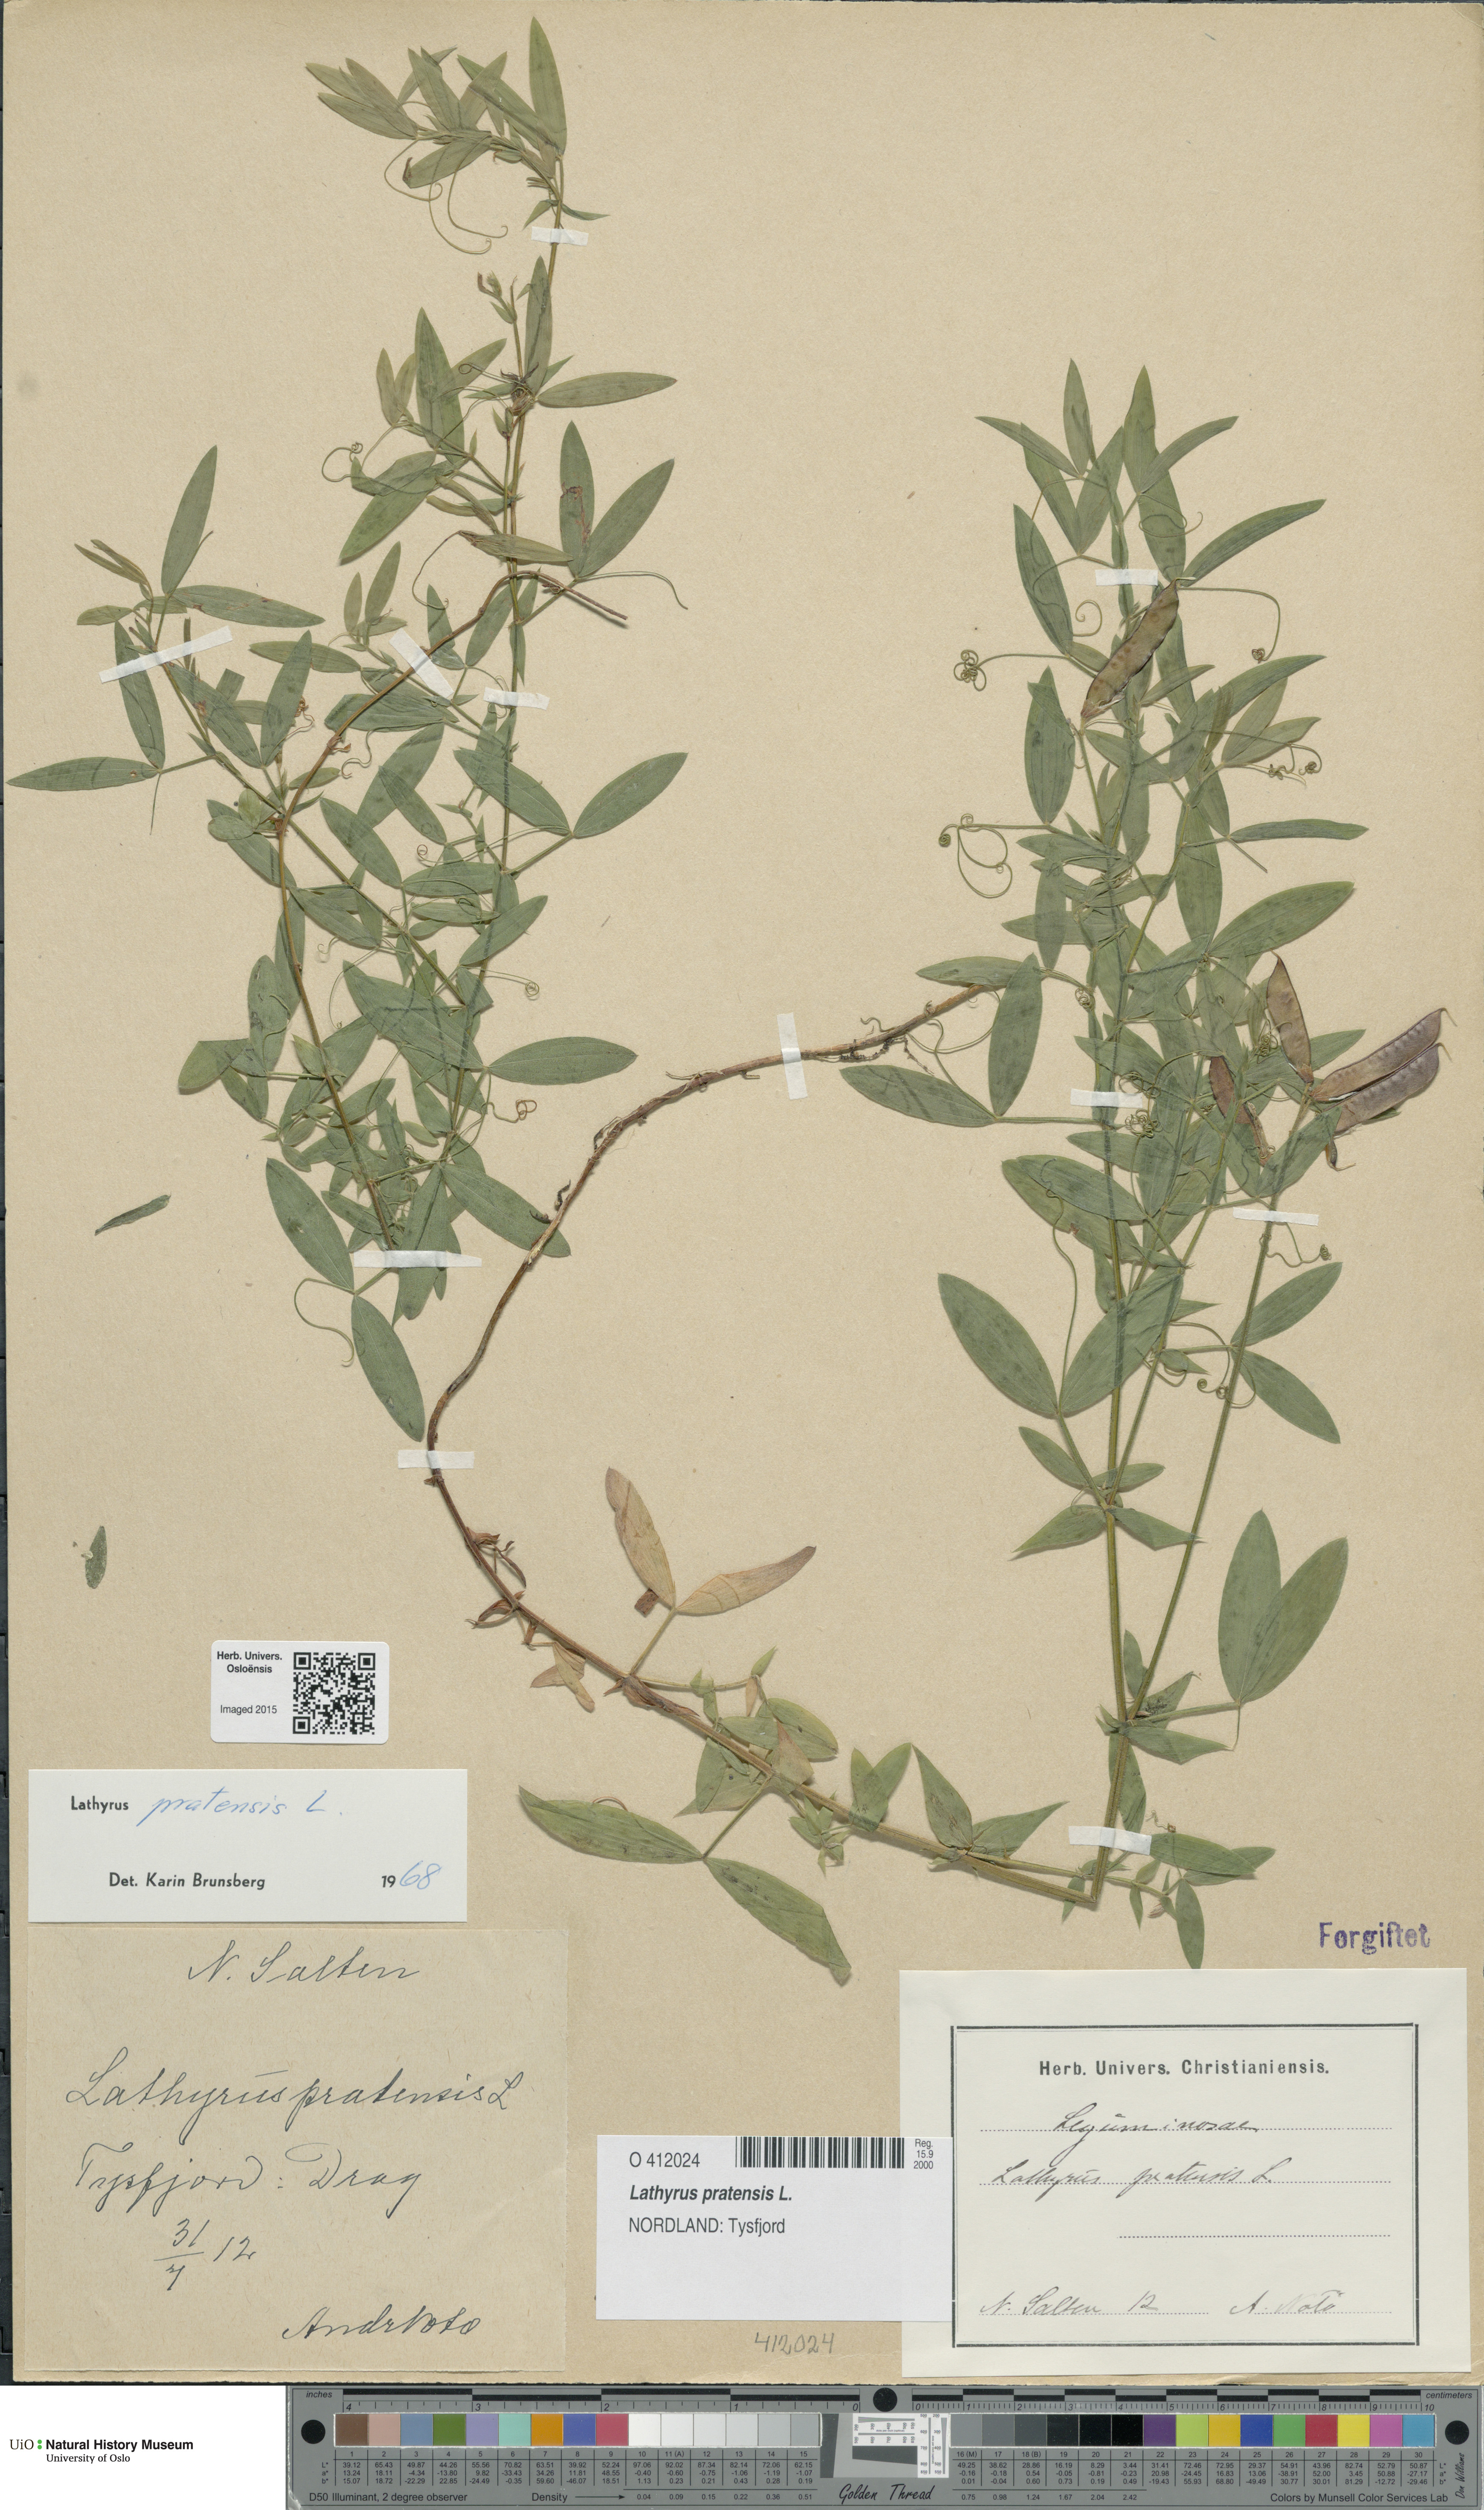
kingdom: Plantae
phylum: Tracheophyta
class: Magnoliopsida
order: Fabales
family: Fabaceae
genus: Lathyrus
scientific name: Lathyrus pratensis
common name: Meadow vetchling
